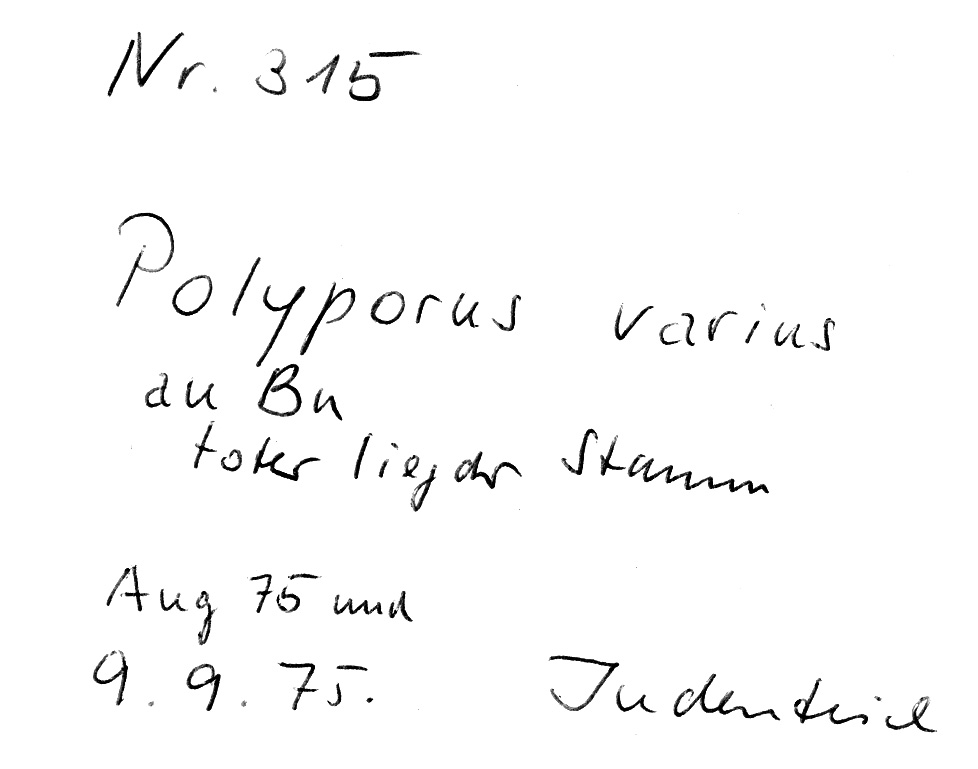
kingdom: Fungi
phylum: Basidiomycota
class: Agaricomycetes
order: Polyporales
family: Polyporaceae
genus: Cerioporus
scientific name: Cerioporus varius
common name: Elegant polypore
